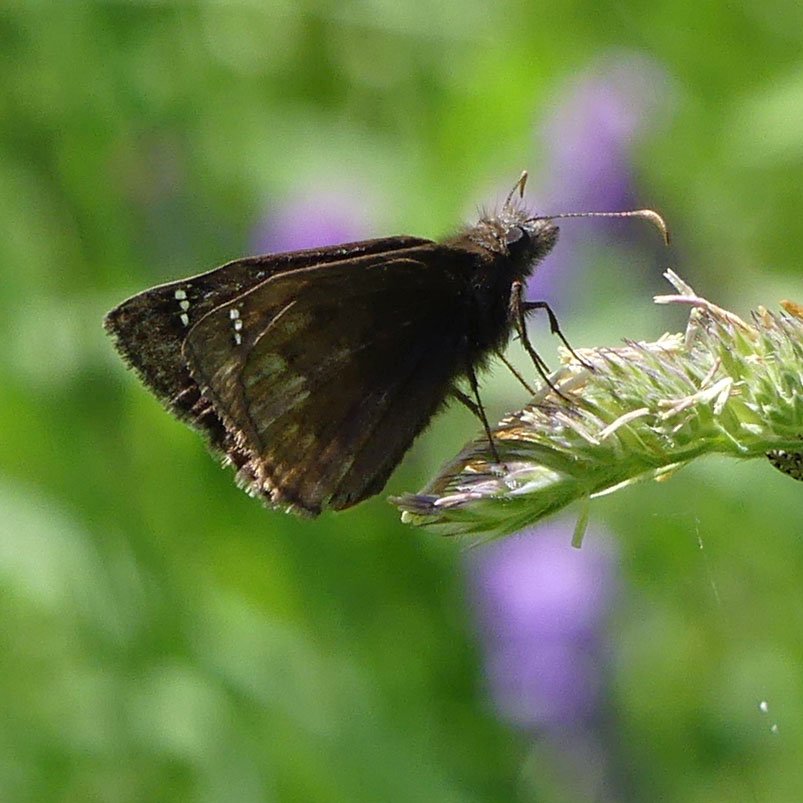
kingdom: Animalia
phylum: Arthropoda
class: Insecta
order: Lepidoptera
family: Hesperiidae
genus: Gesta
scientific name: Gesta
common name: Wild Indigo Duskywing
